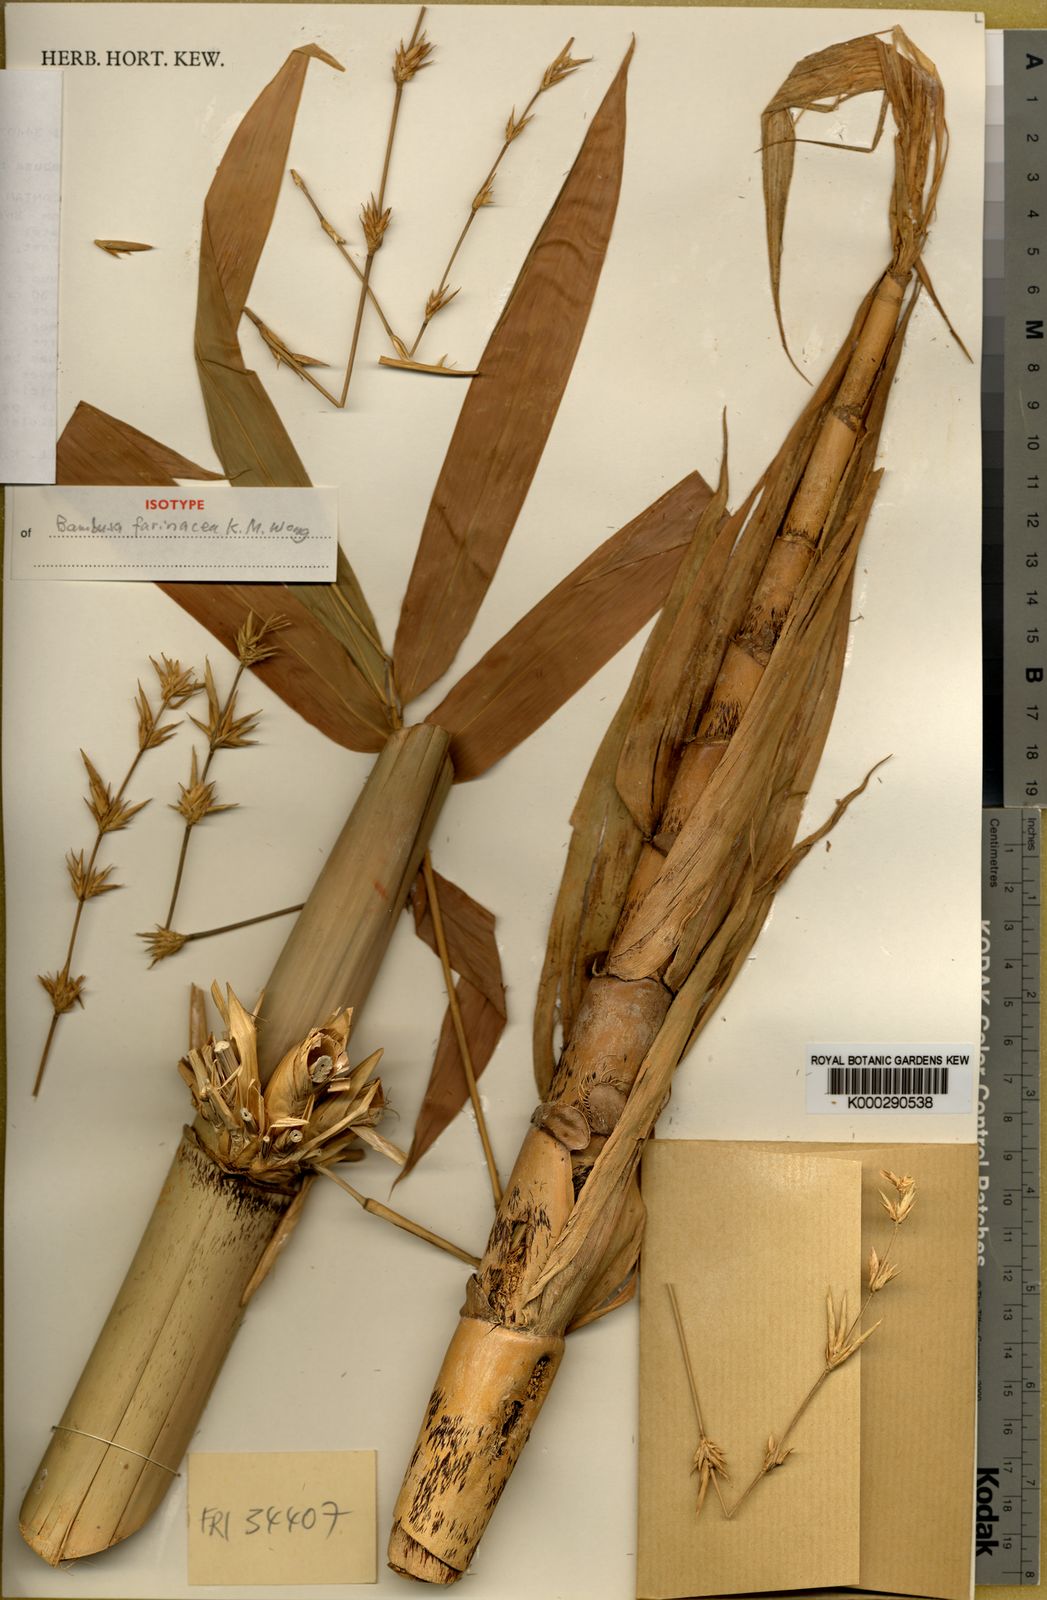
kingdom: Plantae
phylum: Tracheophyta
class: Liliopsida
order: Poales
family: Poaceae
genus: Bambusa
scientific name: Bambusa farinacea
